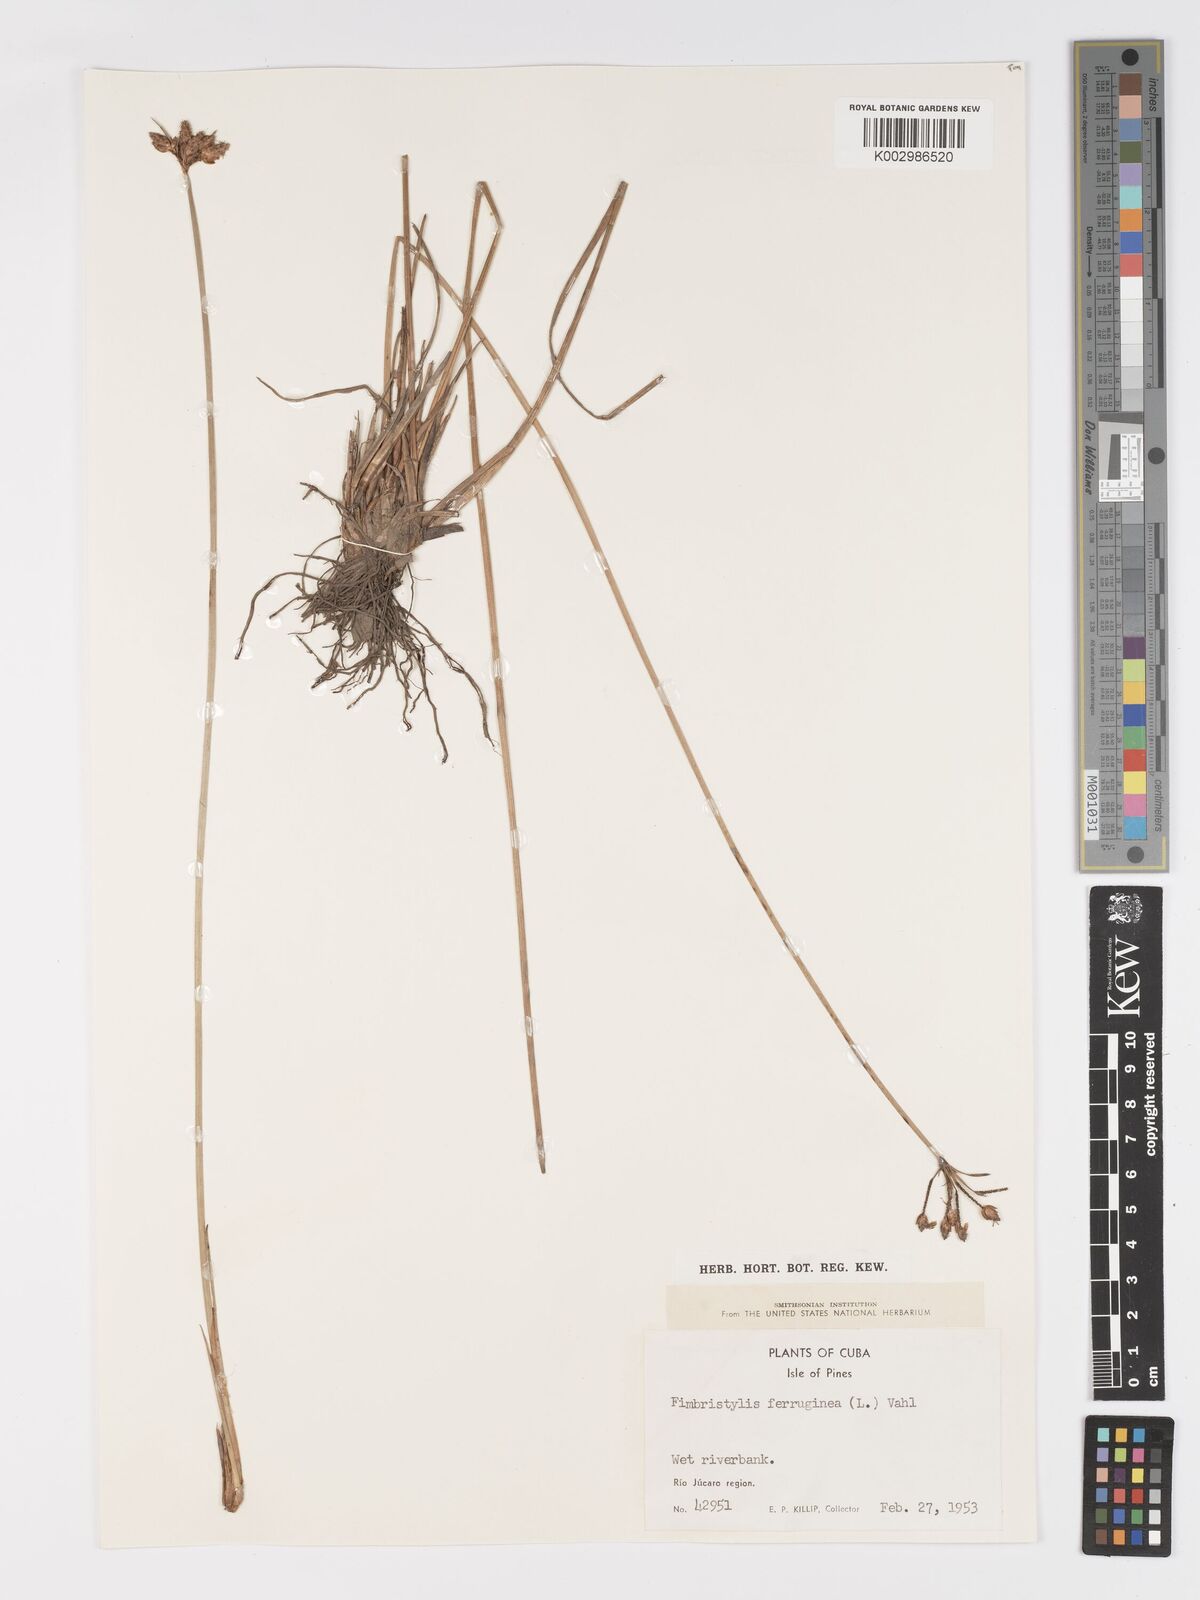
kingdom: Plantae
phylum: Tracheophyta
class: Liliopsida
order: Poales
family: Cyperaceae
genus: Fimbristylis
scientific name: Fimbristylis ferruginea
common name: West indian fimbry
